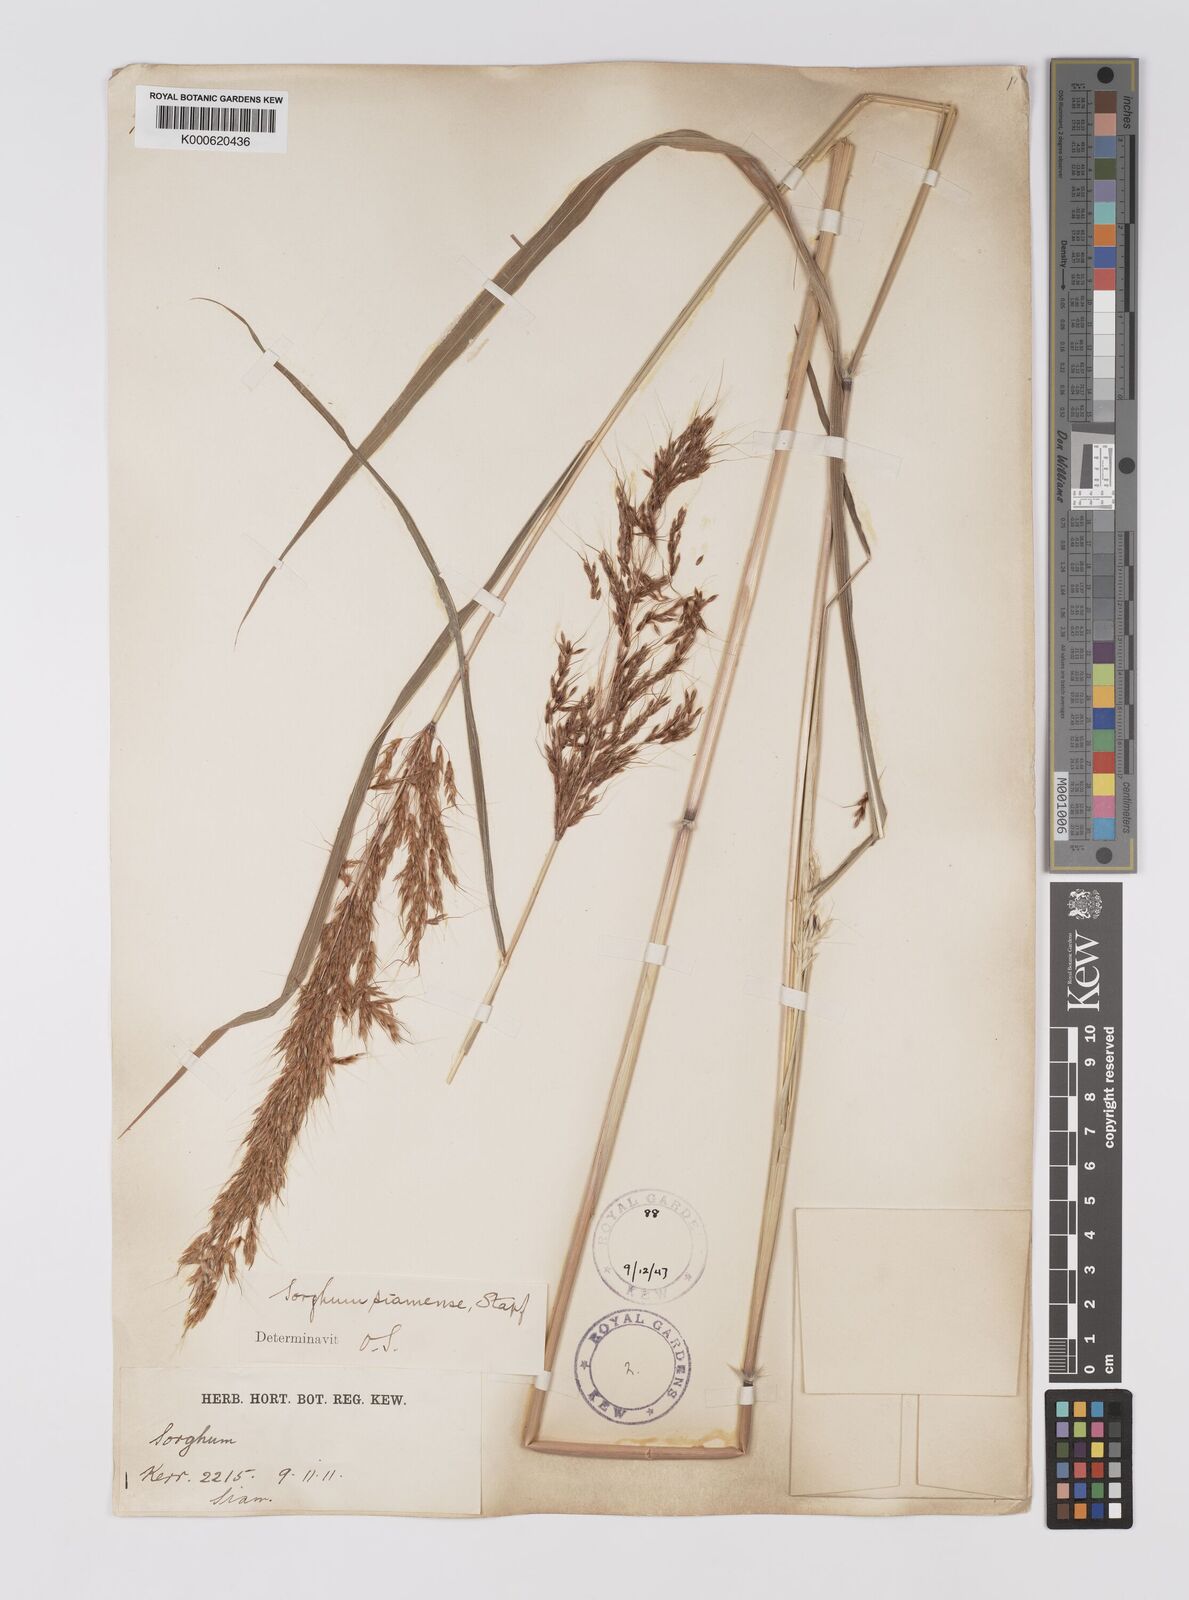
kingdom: Plantae
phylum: Tracheophyta
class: Liliopsida
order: Poales
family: Poaceae
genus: Sorghum
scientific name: Sorghum burmahicum
